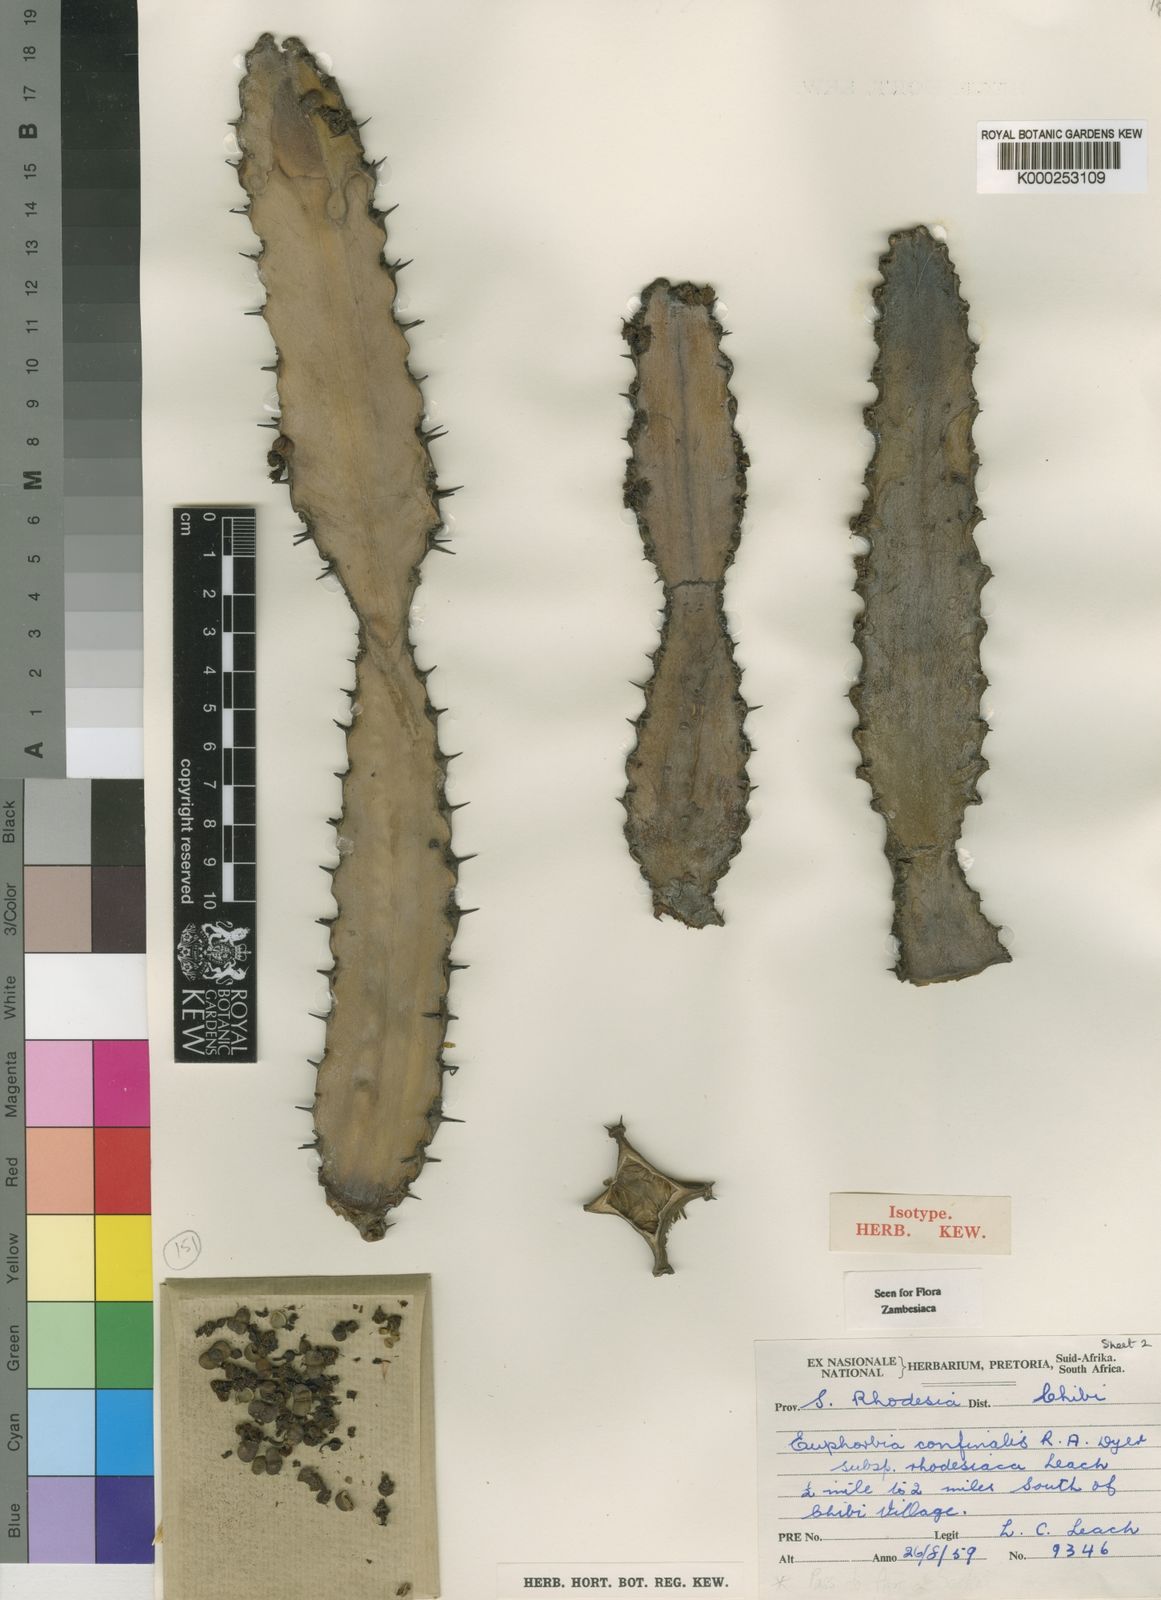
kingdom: Plantae
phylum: Tracheophyta
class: Magnoliopsida
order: Malpighiales
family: Euphorbiaceae
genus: Euphorbia
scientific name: Euphorbia confinalis
